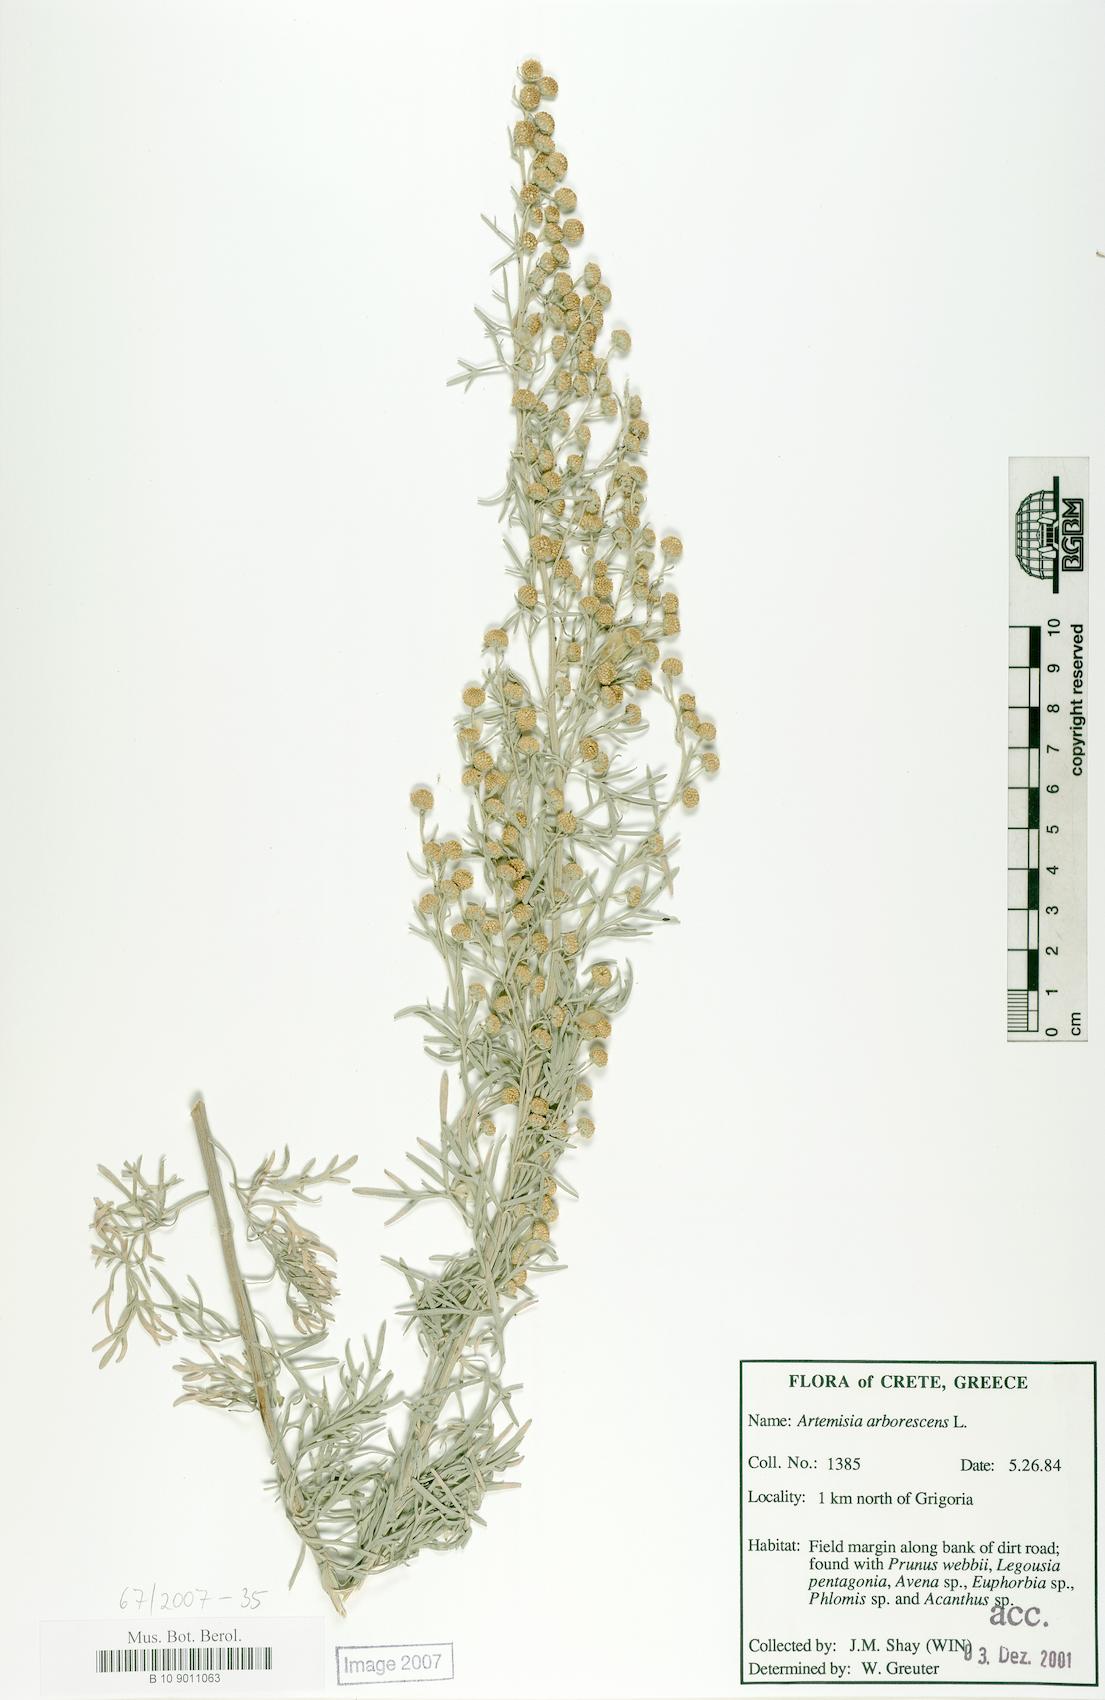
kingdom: Plantae
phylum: Tracheophyta
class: Magnoliopsida
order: Asterales
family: Asteraceae
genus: Artemisia
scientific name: Artemisia arborescens
